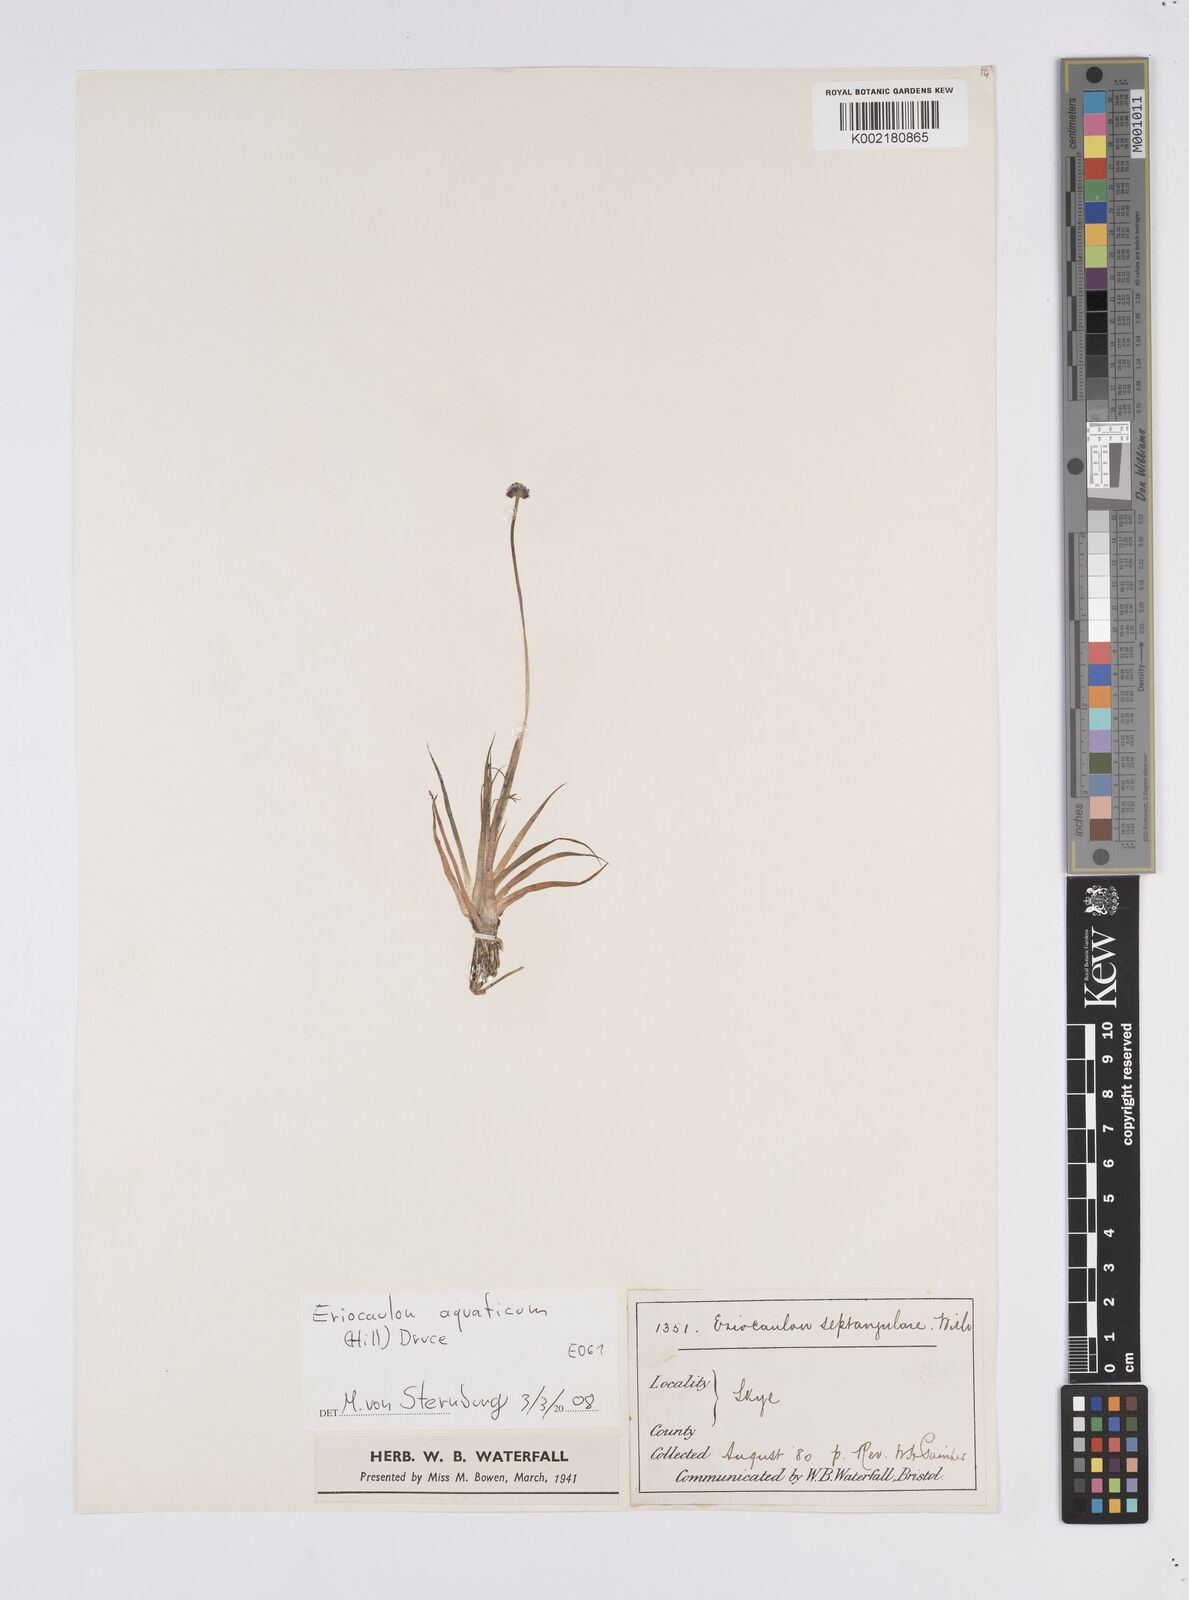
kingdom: Plantae
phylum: Tracheophyta
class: Liliopsida
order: Poales
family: Eriocaulaceae
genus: Eriocaulon
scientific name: Eriocaulon aquaticum
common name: Pipewort
